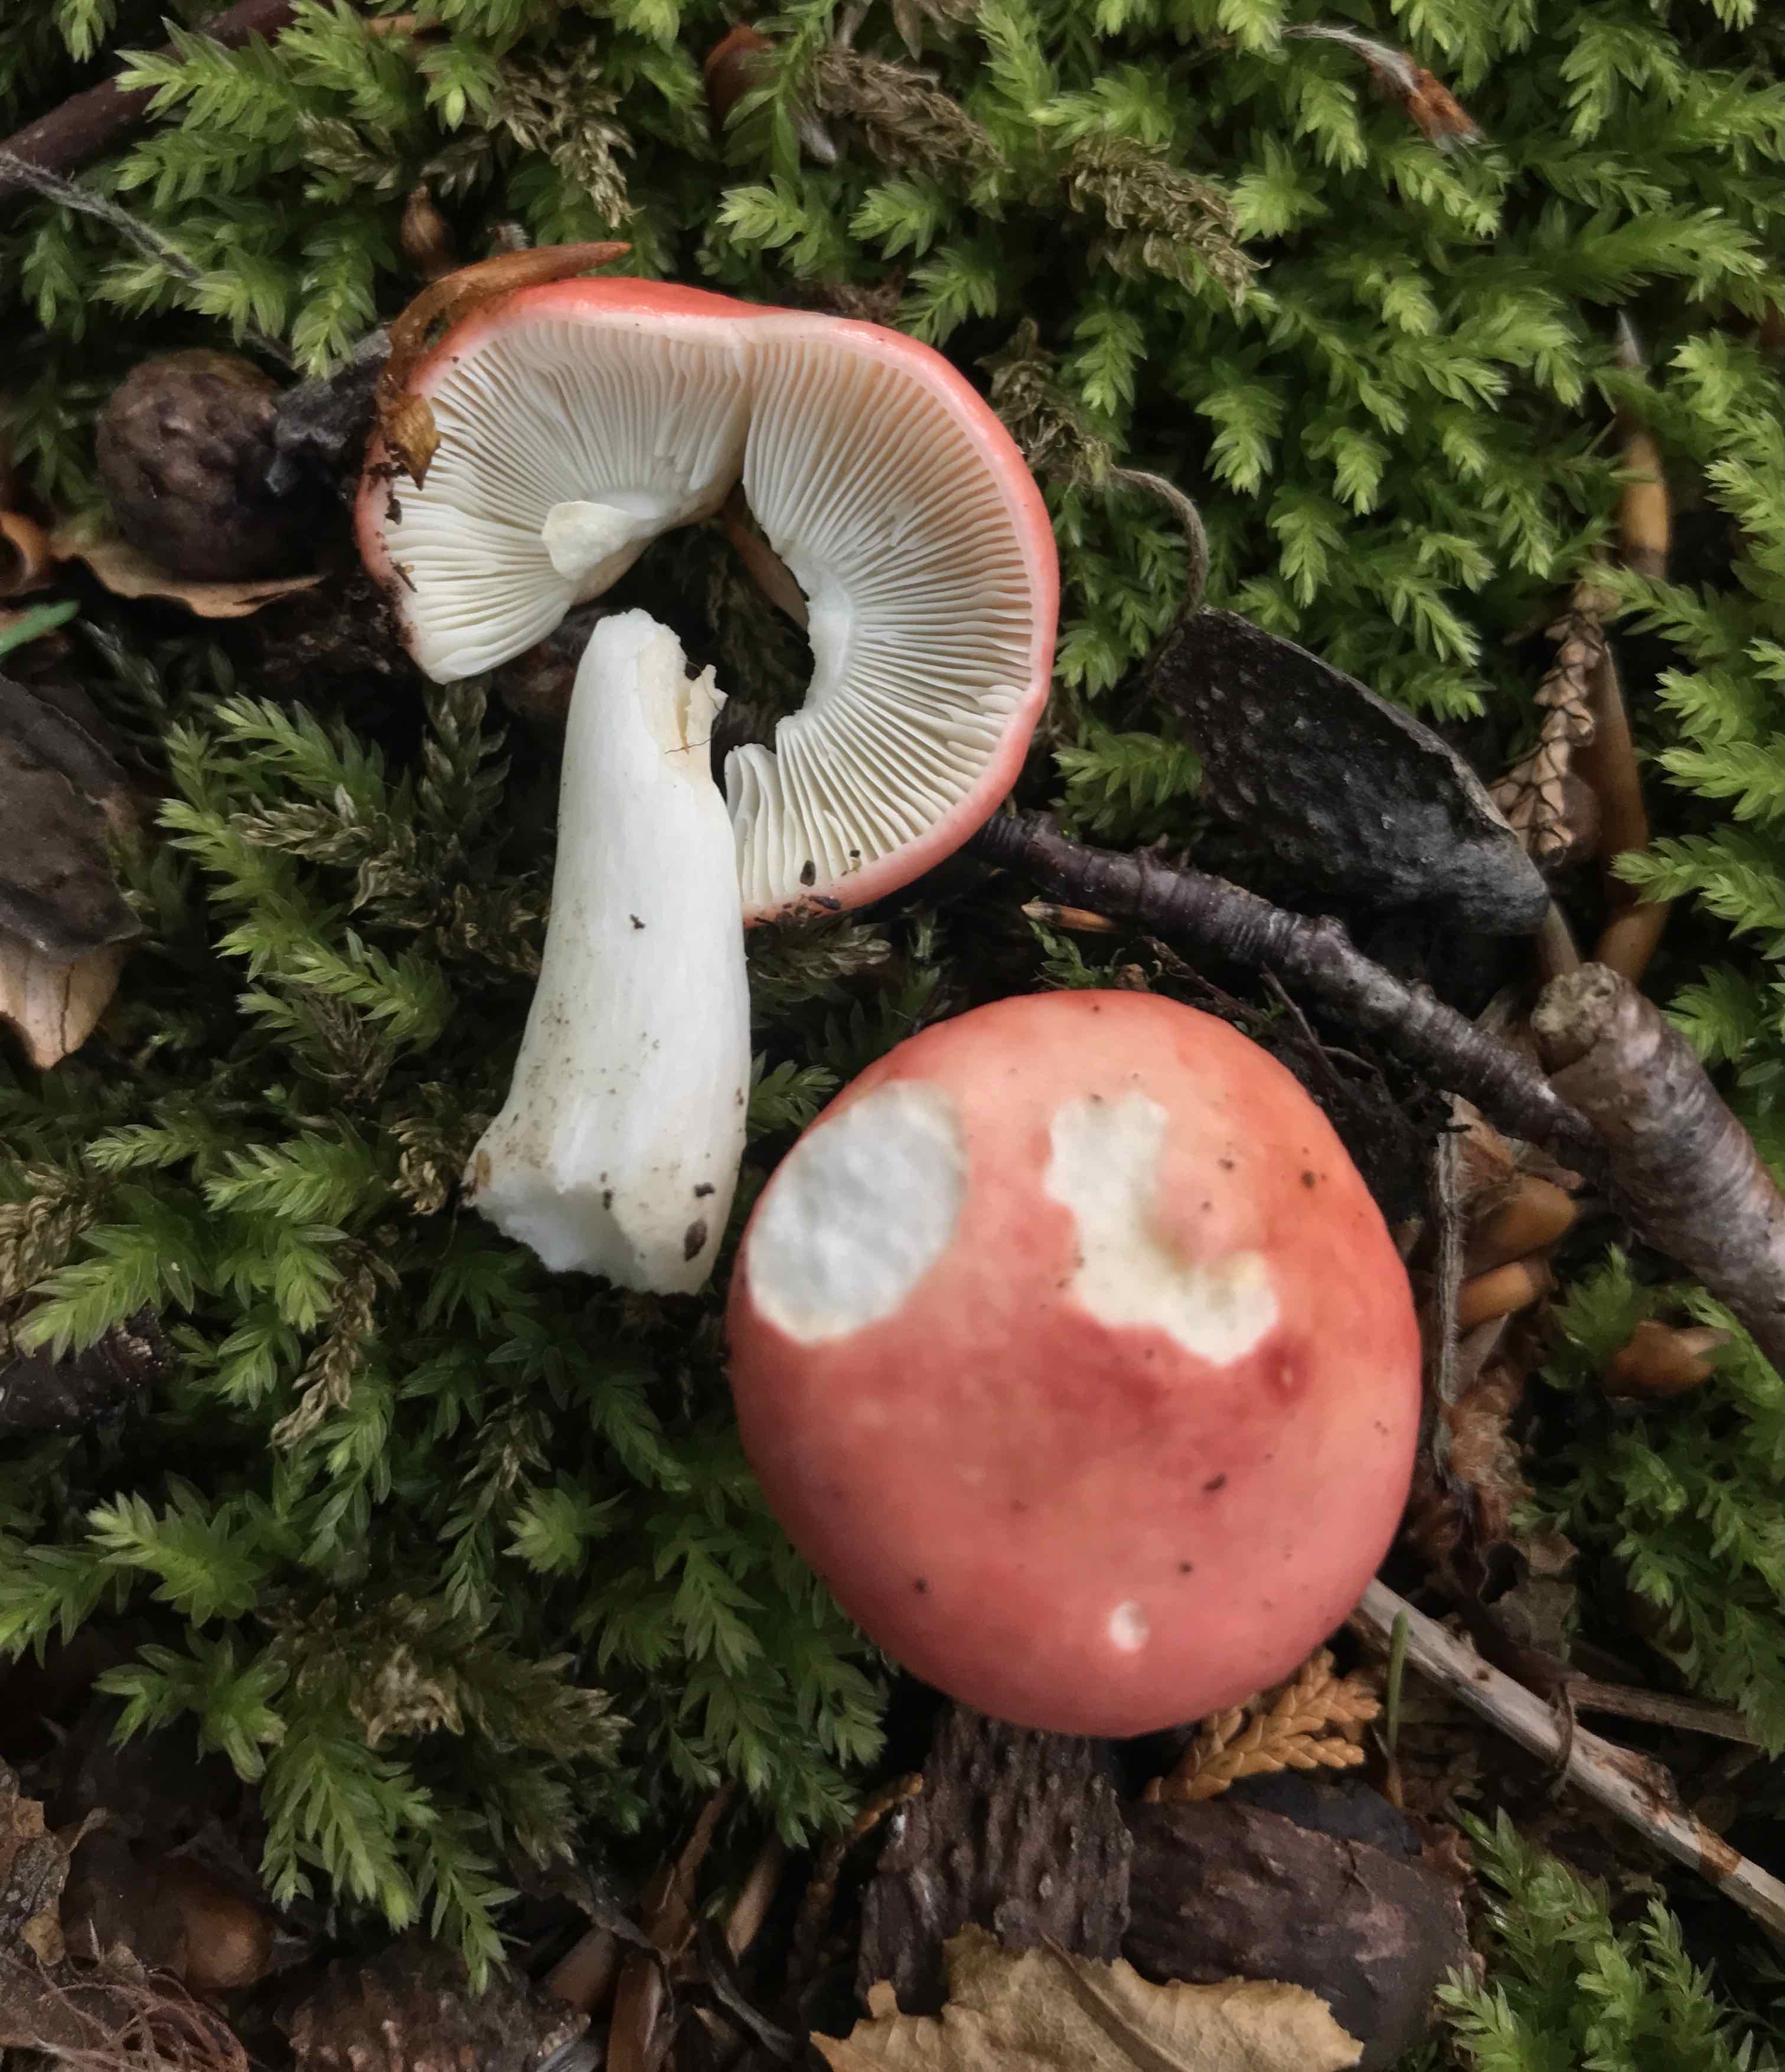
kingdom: Fungi
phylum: Basidiomycota
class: Agaricomycetes
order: Russulales
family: Russulaceae
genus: Russula
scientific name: Russula nobilis
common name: lille gift-skørhat
